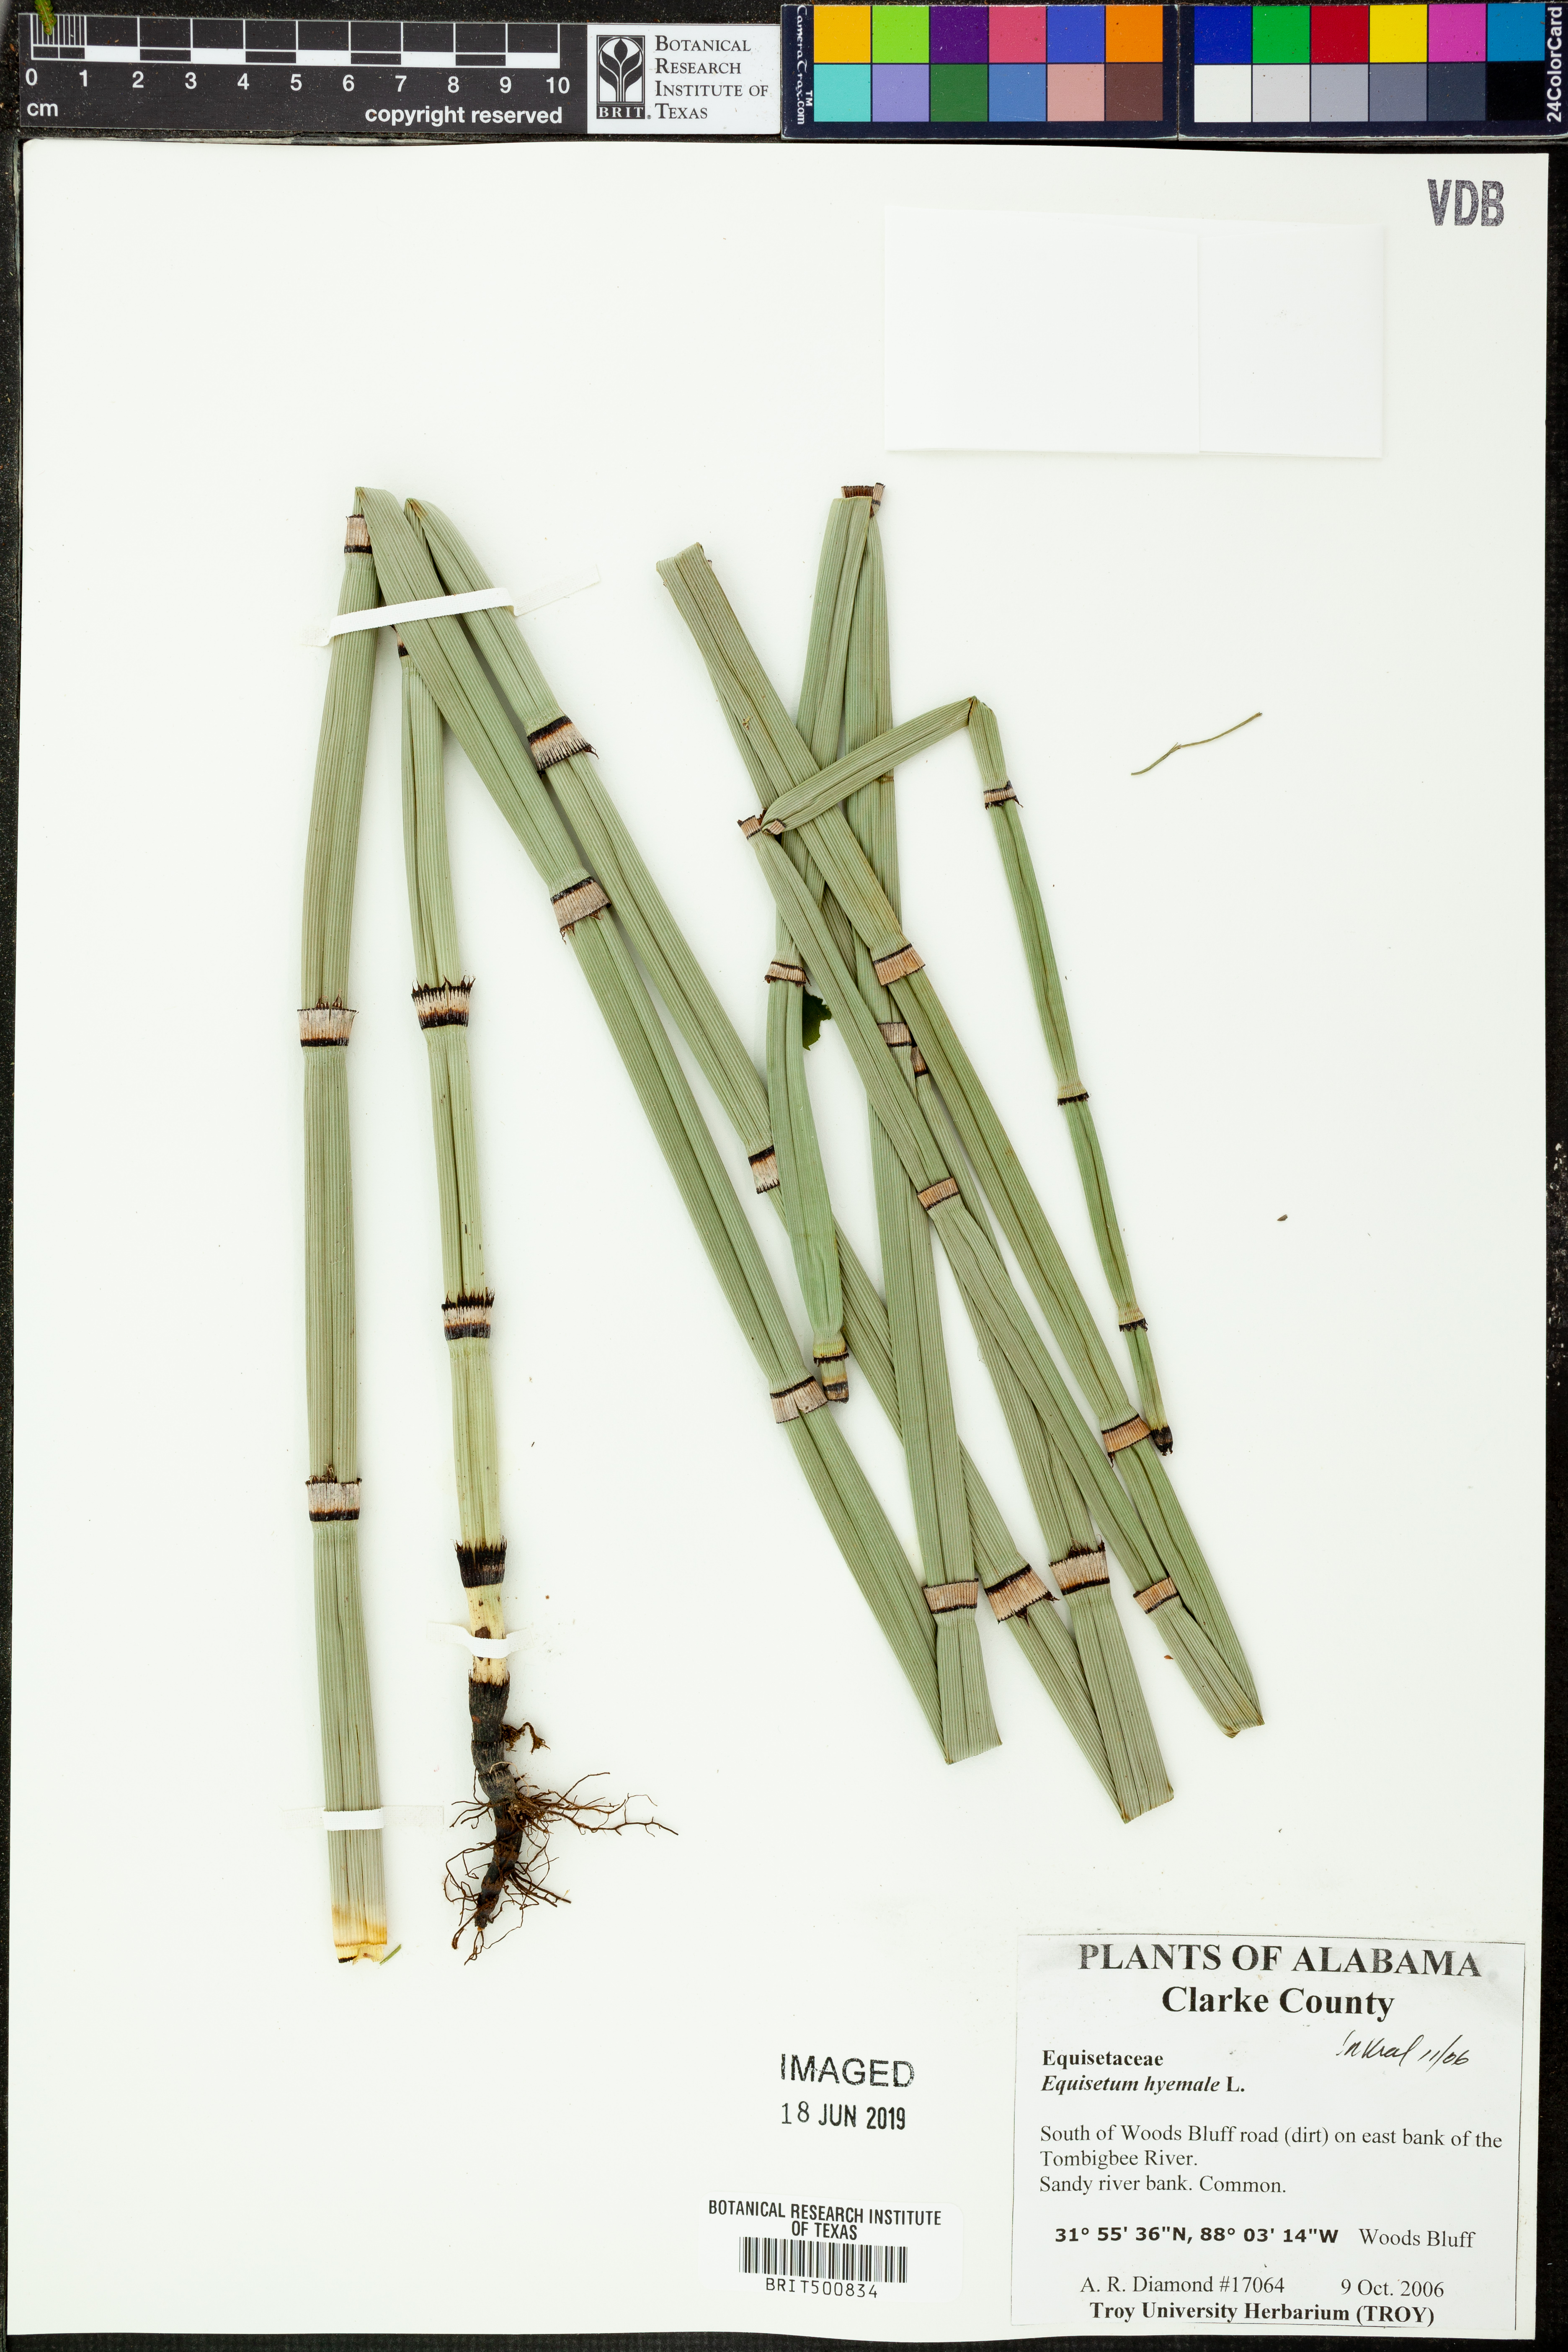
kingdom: Plantae
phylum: Tracheophyta
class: Polypodiopsida
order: Equisetales
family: Equisetaceae
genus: Equisetum
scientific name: Equisetum hyemale
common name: Rough horsetail
